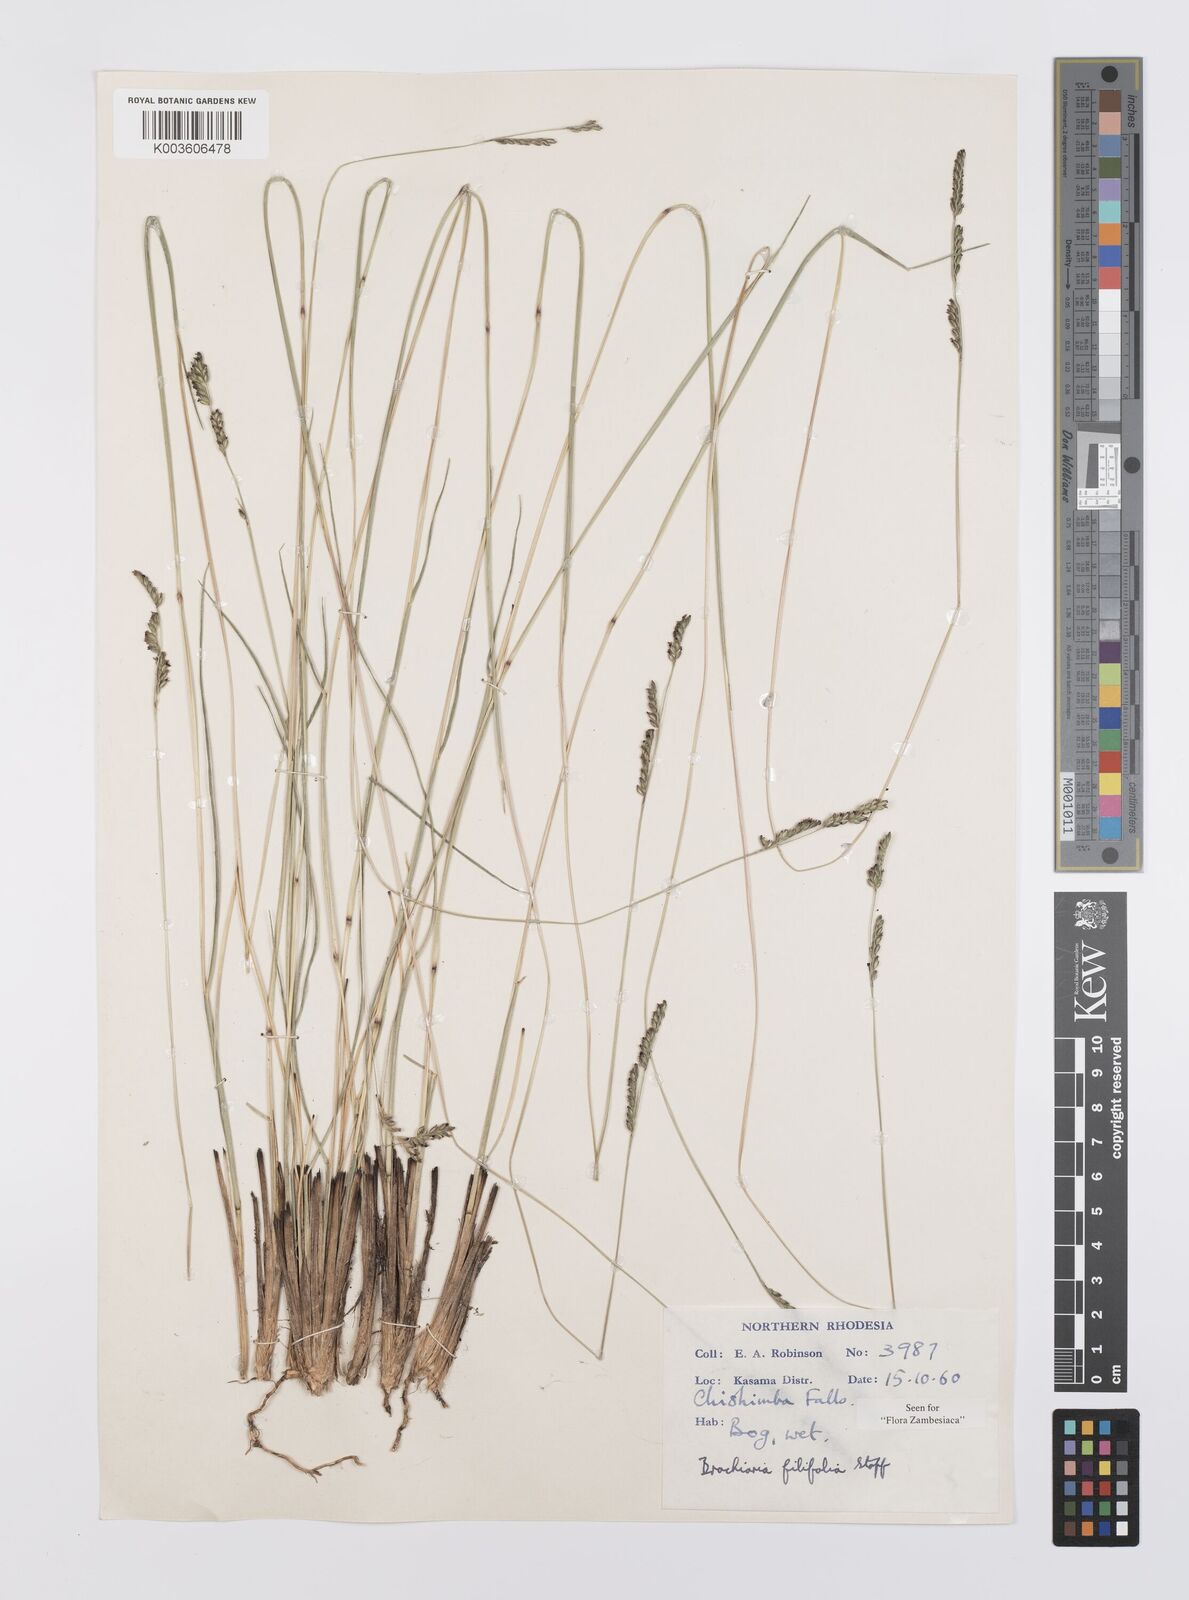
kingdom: Plantae
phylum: Tracheophyta
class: Liliopsida
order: Poales
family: Poaceae
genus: Urochloa
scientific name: Urochloa subulifolia
